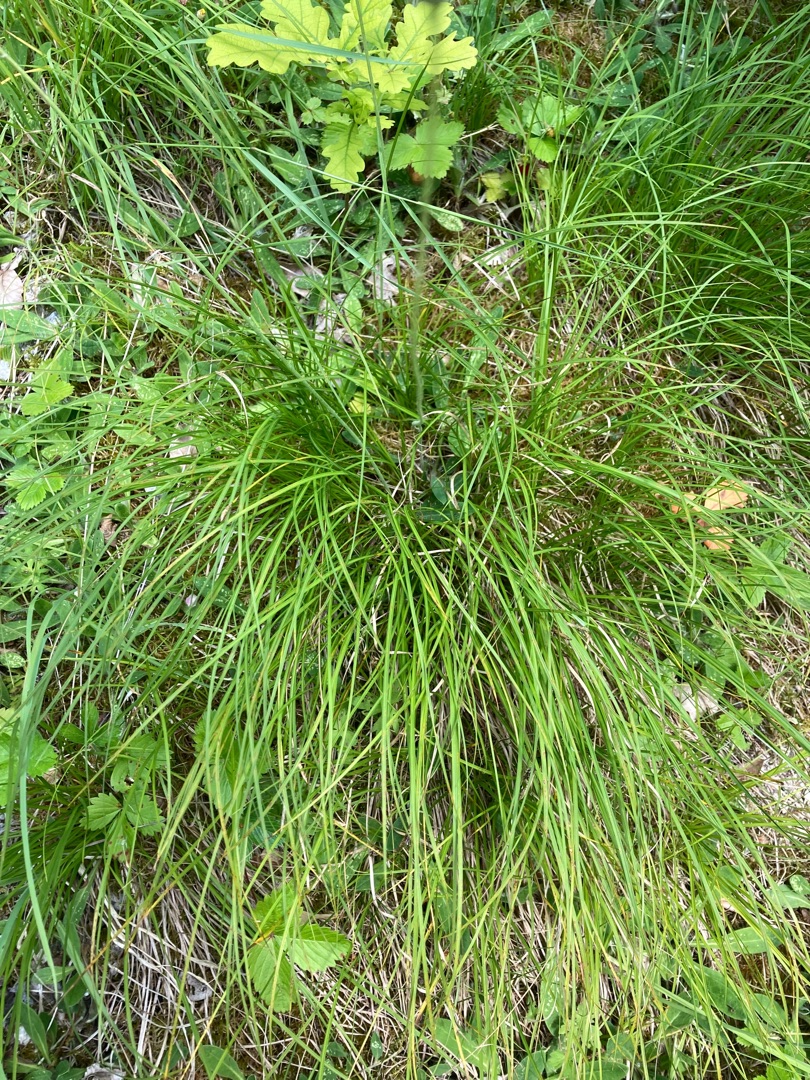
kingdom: Plantae
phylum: Tracheophyta
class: Liliopsida
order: Poales
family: Cyperaceae
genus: Carex
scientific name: Carex montana
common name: Bakke-star
